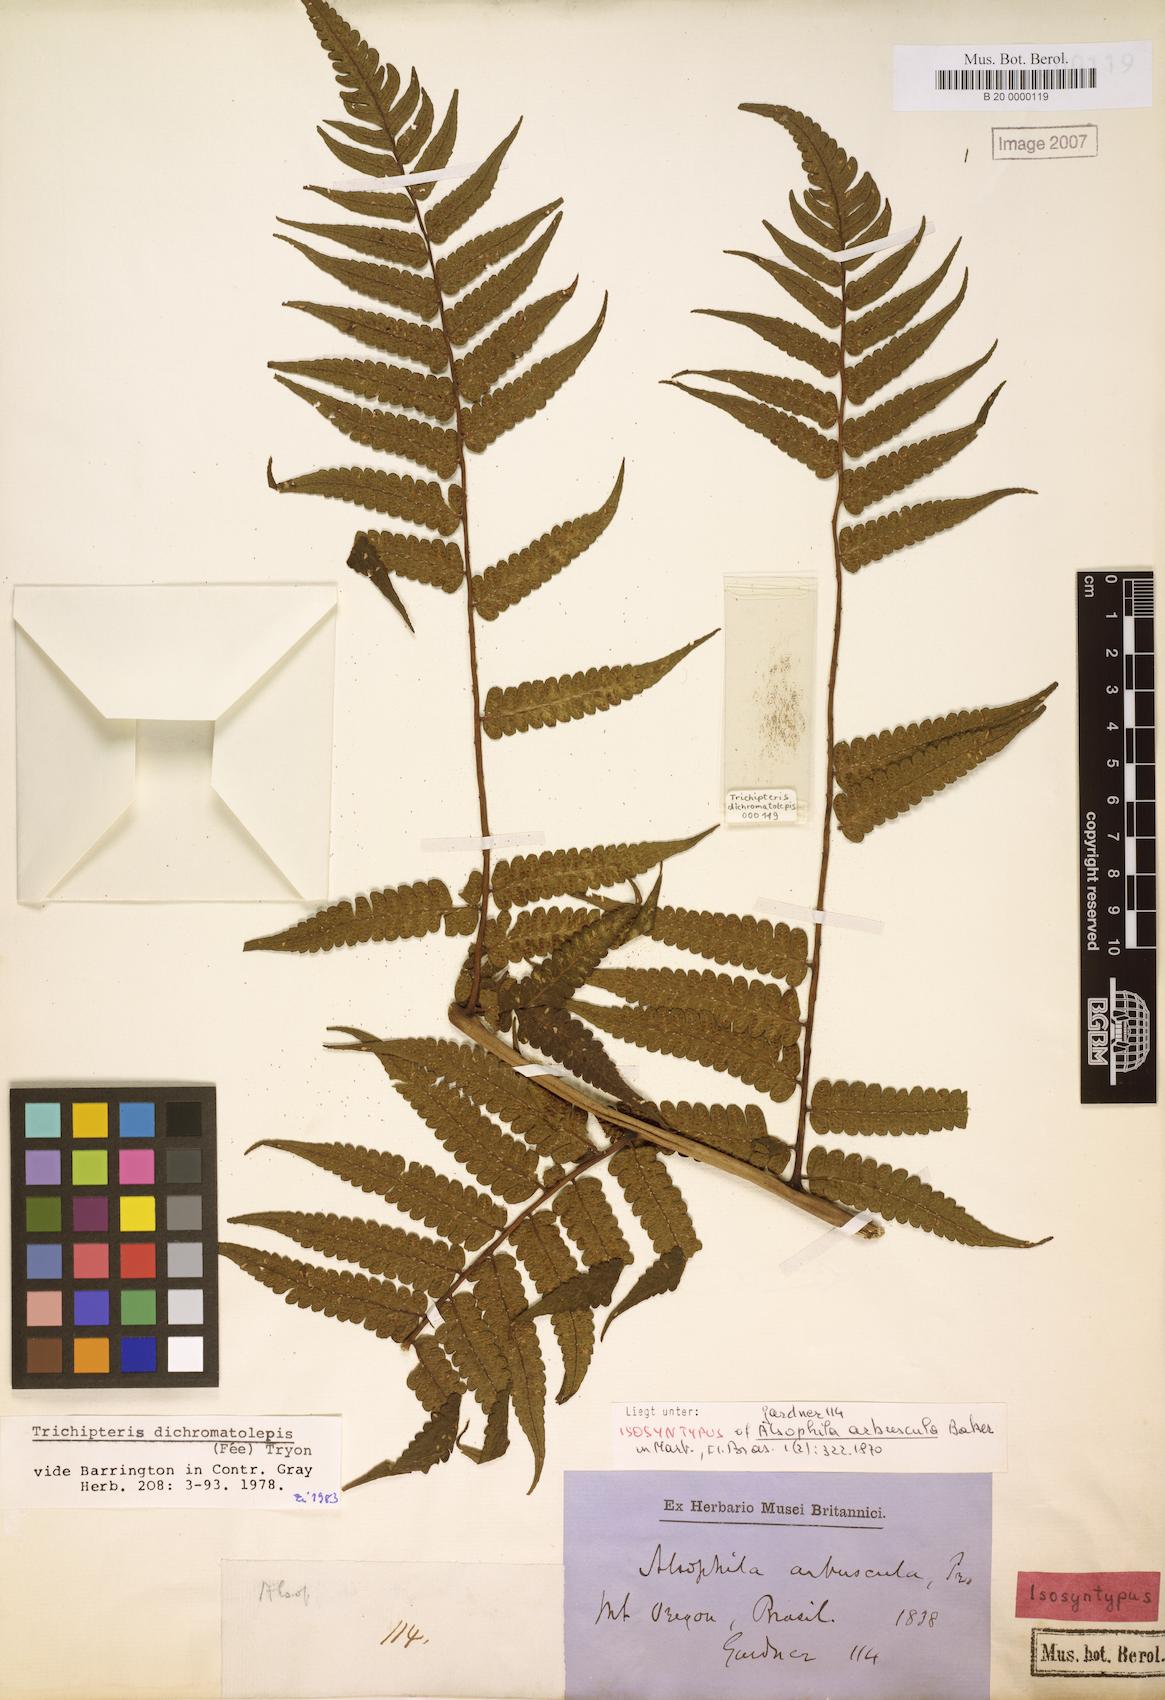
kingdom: Plantae
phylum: Tracheophyta
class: Polypodiopsida
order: Cyatheales
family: Cyatheaceae
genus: Cyathea
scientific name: Cyathea dichromatolepis
